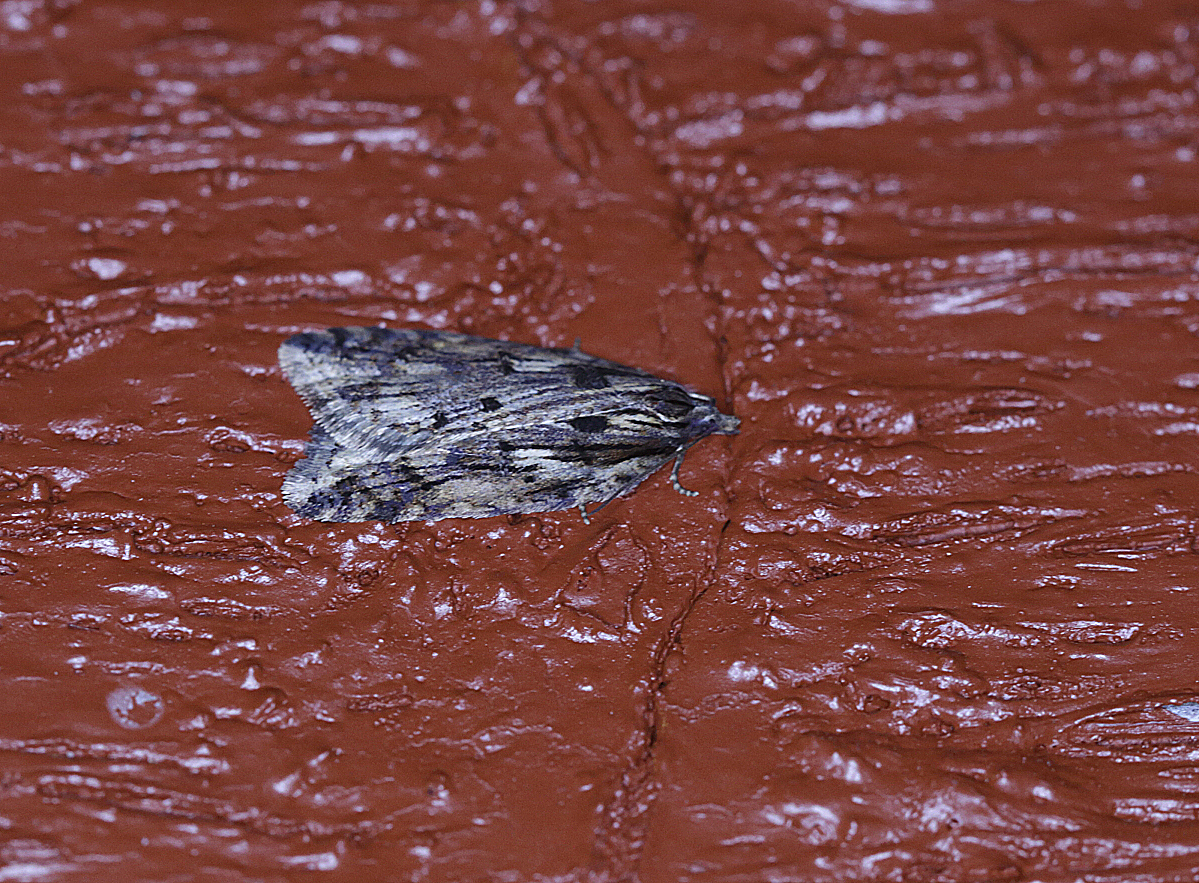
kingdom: Animalia
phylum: Arthropoda
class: Insecta
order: Lepidoptera
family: Tortricidae
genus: Acleris
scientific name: Acleris umbrana
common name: Dark-streaked button
